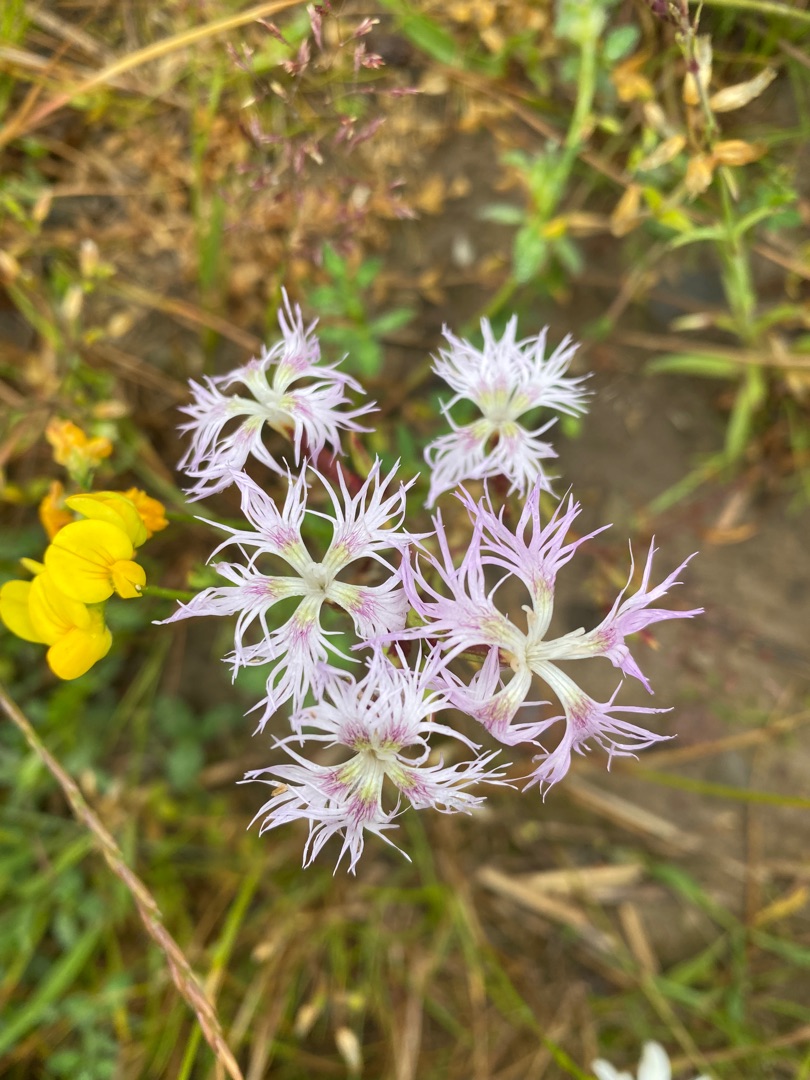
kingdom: Plantae
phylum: Tracheophyta
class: Magnoliopsida
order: Caryophyllales
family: Caryophyllaceae
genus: Dianthus
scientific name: Dianthus superbus
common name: Strand-nellike
